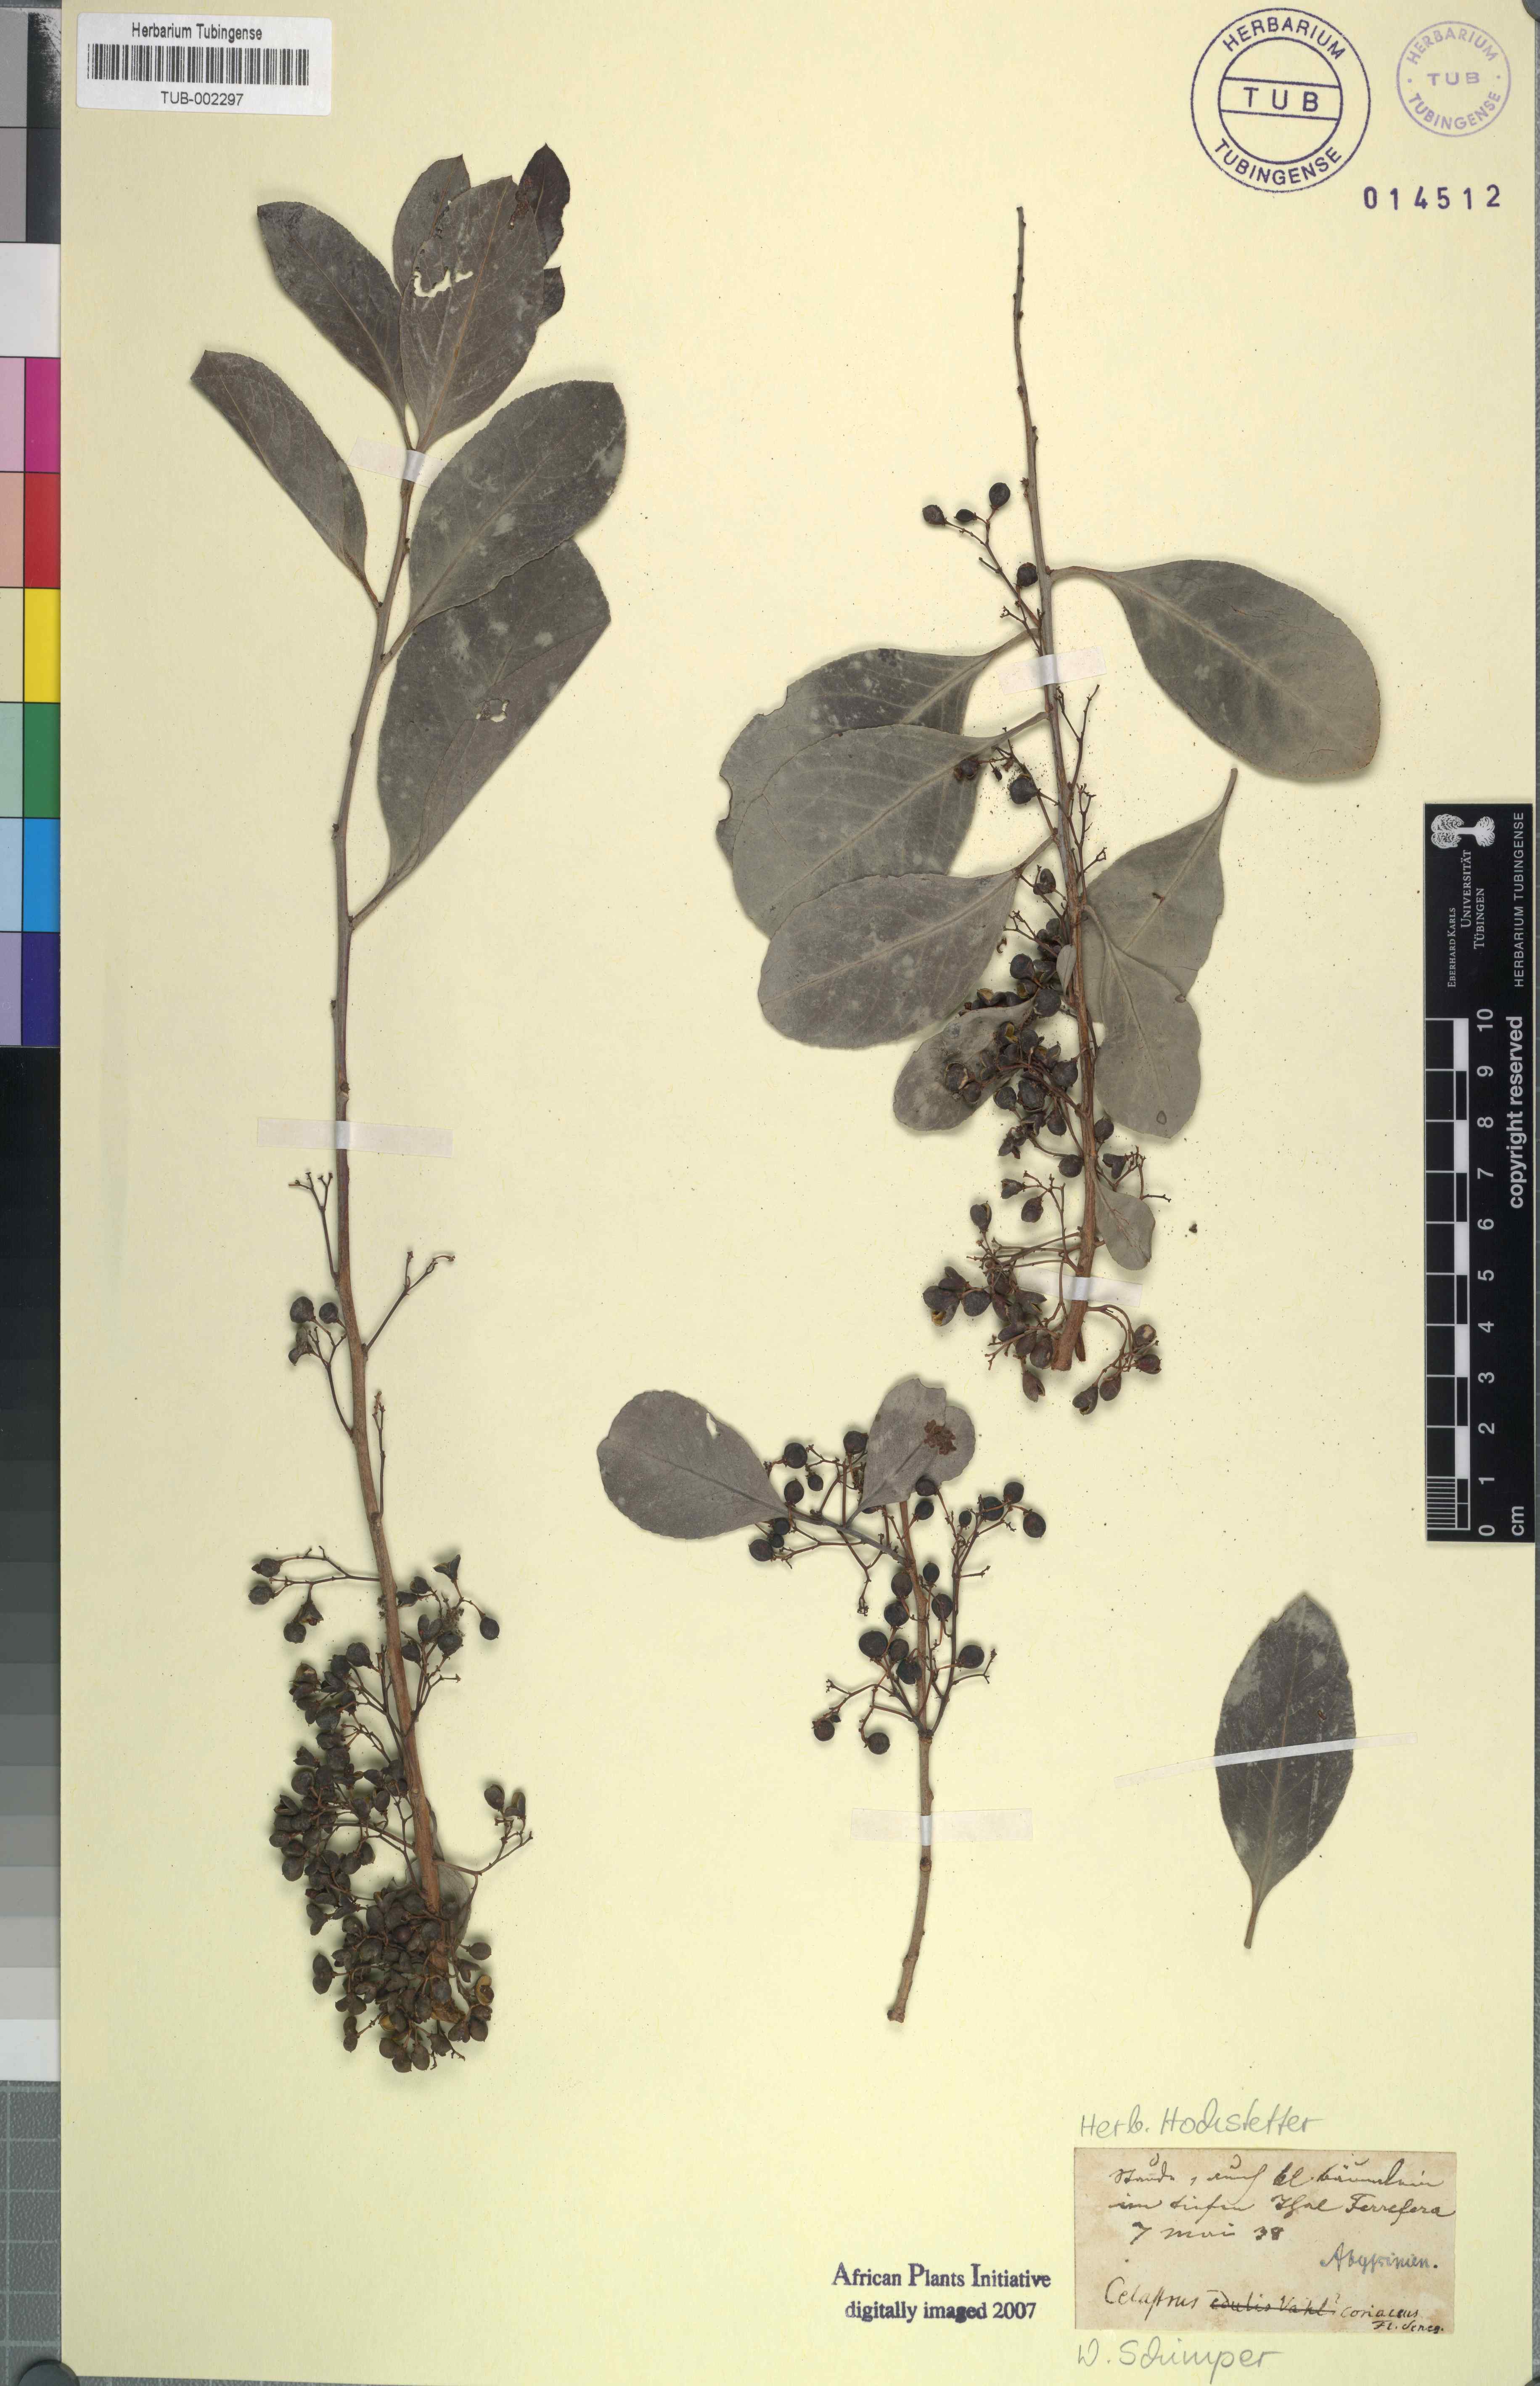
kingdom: Plantae
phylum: Tracheophyta
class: Magnoliopsida
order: Celastrales
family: Celastraceae
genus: Gymnosporia
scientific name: Gymnosporia senegalensis
